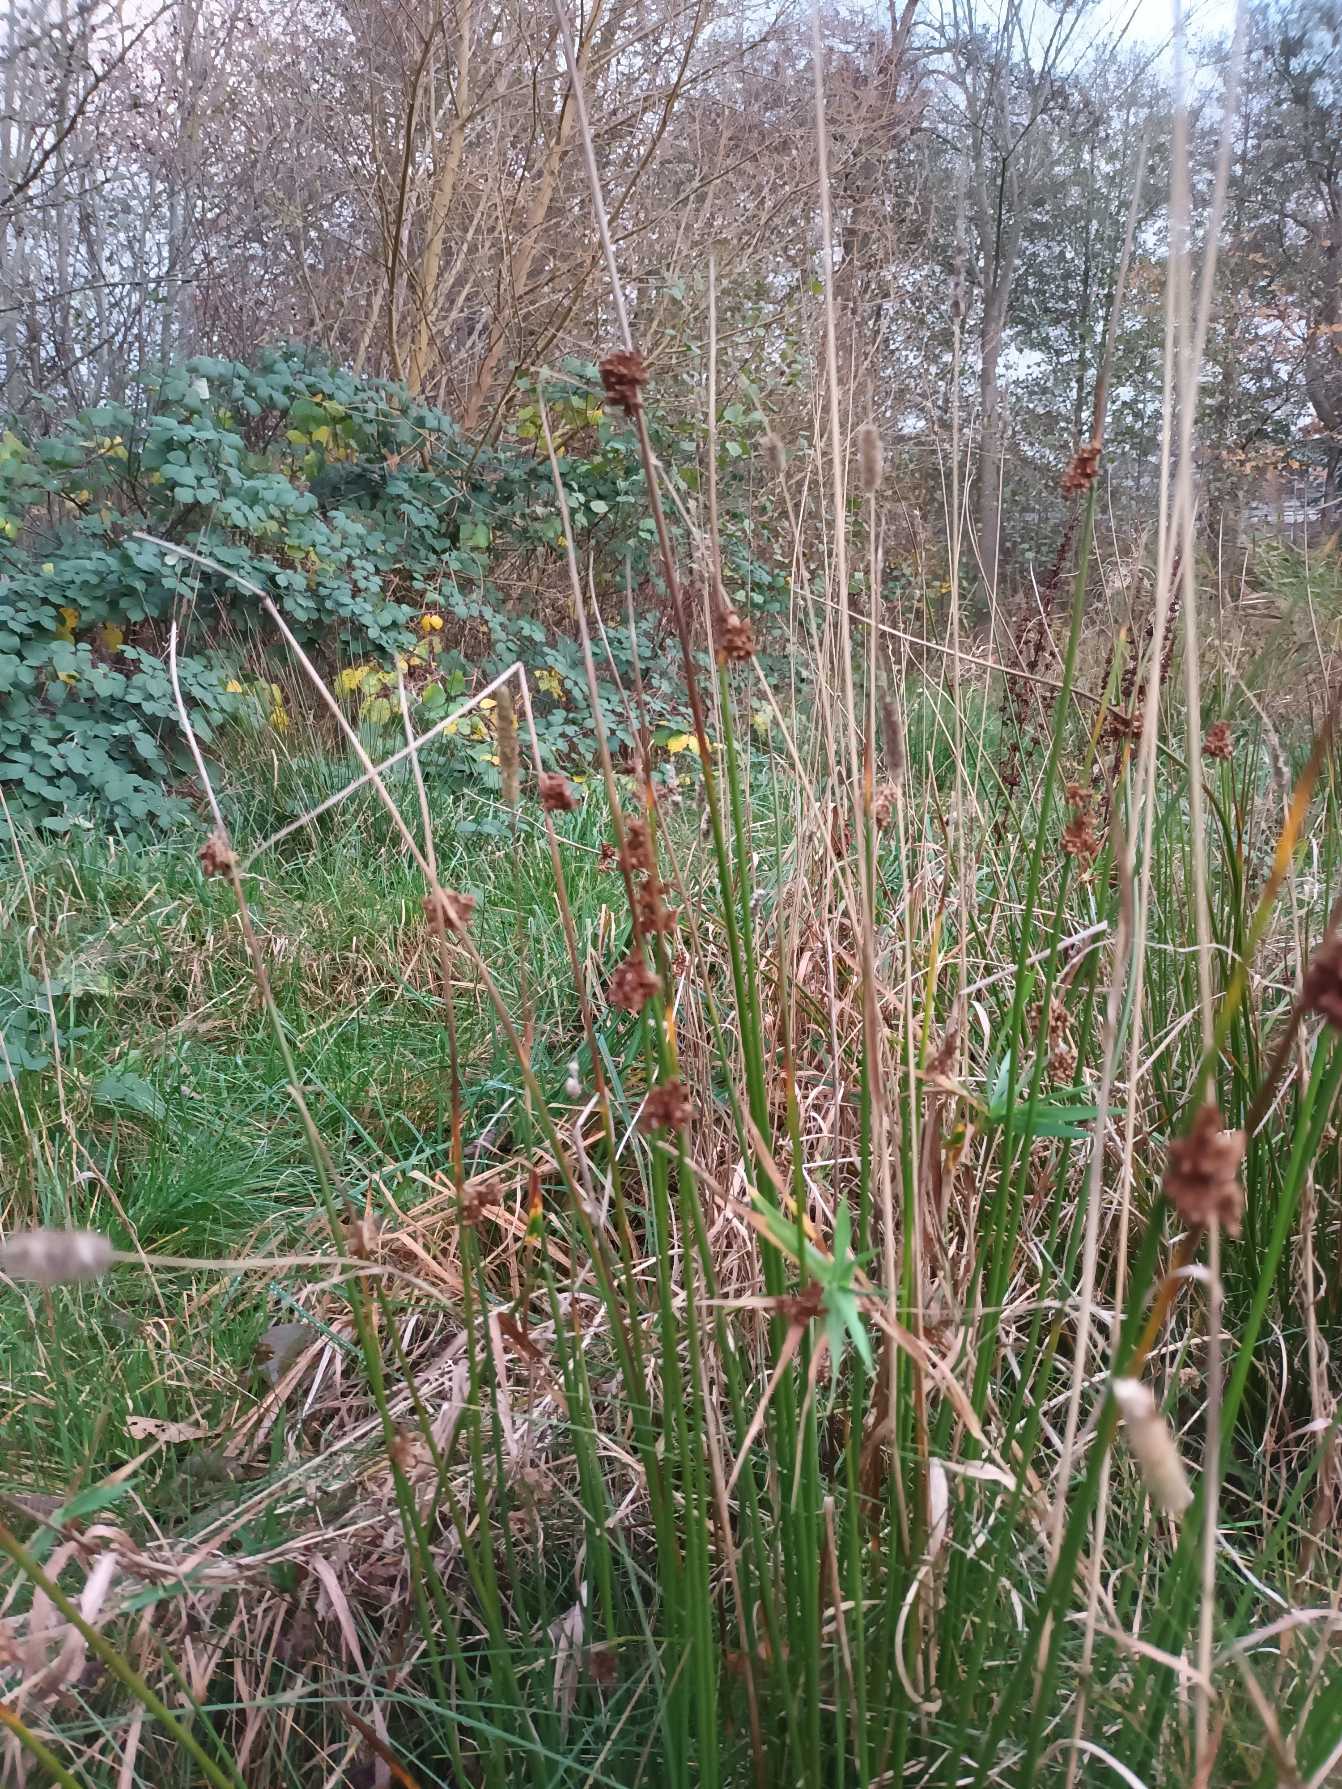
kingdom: Plantae
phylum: Tracheophyta
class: Liliopsida
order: Poales
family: Juncaceae
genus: Juncus
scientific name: Juncus effusus
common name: Lyse-siv
